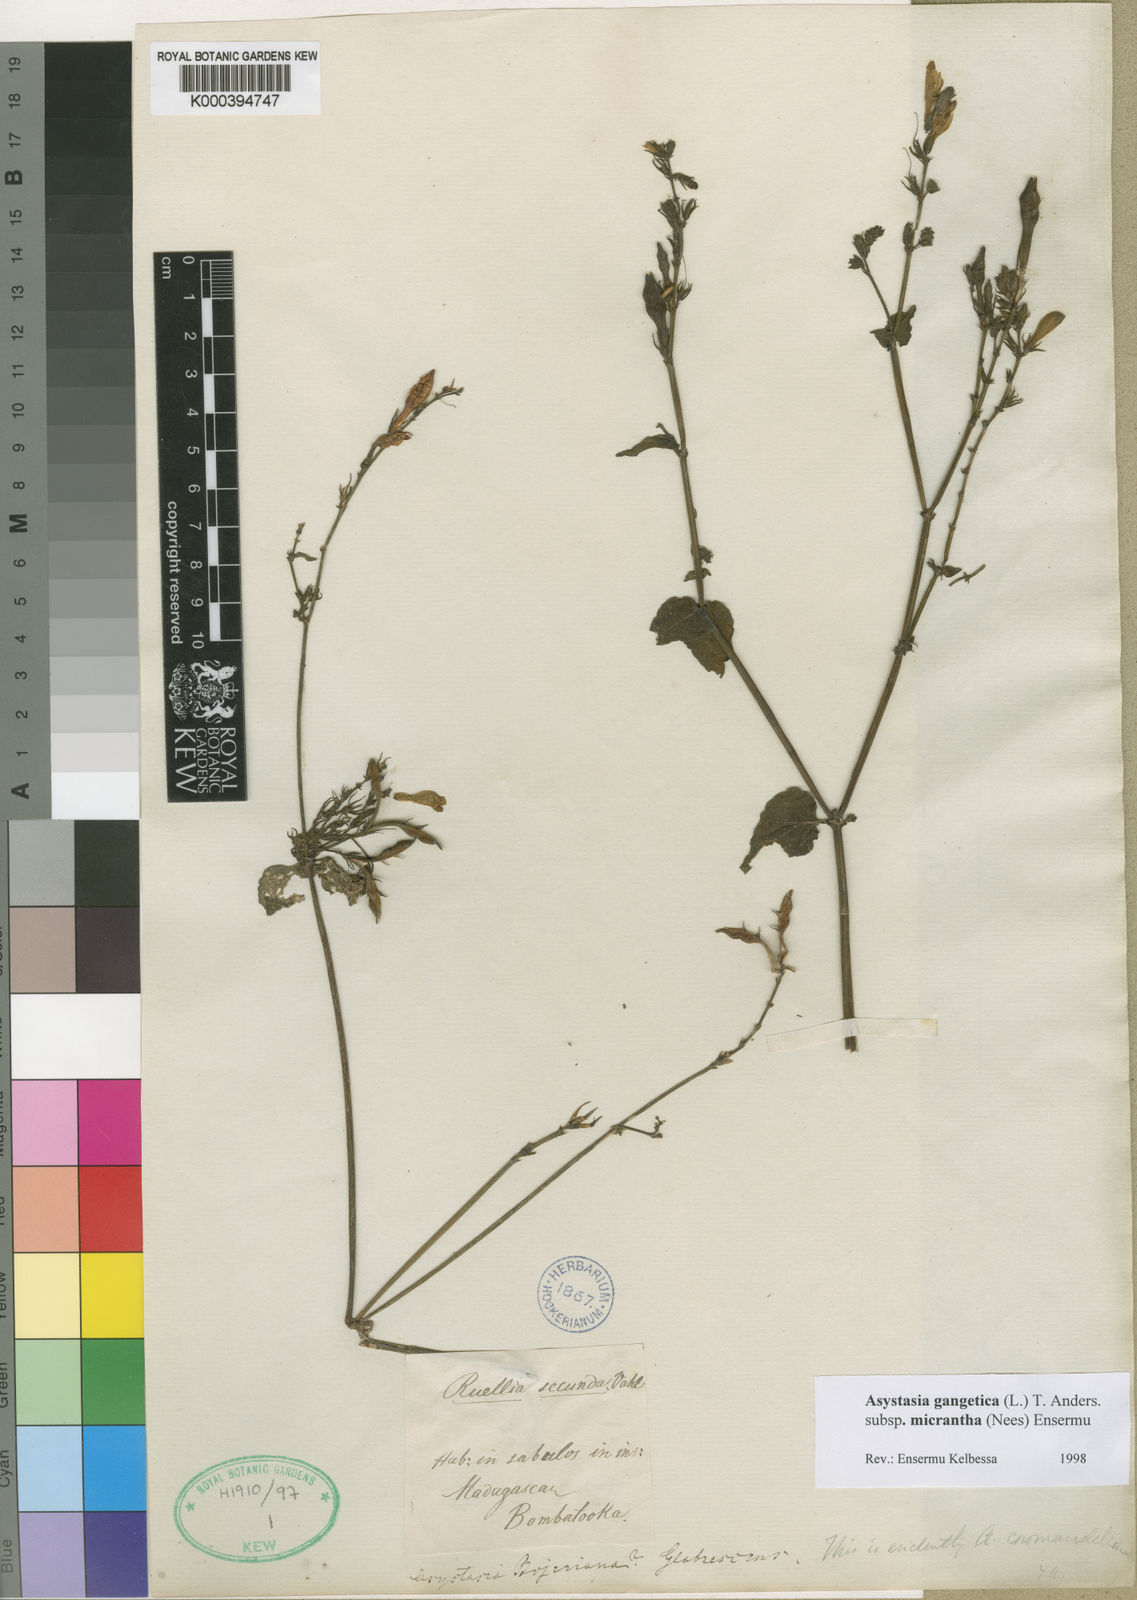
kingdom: Plantae
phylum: Tracheophyta
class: Magnoliopsida
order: Lamiales
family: Acanthaceae
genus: Asystasia
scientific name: Asystasia gangetica
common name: Chinese violet
